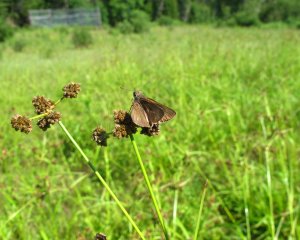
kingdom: Animalia
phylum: Arthropoda
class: Insecta
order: Lepidoptera
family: Hesperiidae
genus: Euphyes
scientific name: Euphyes vestris
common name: Dun Skipper
